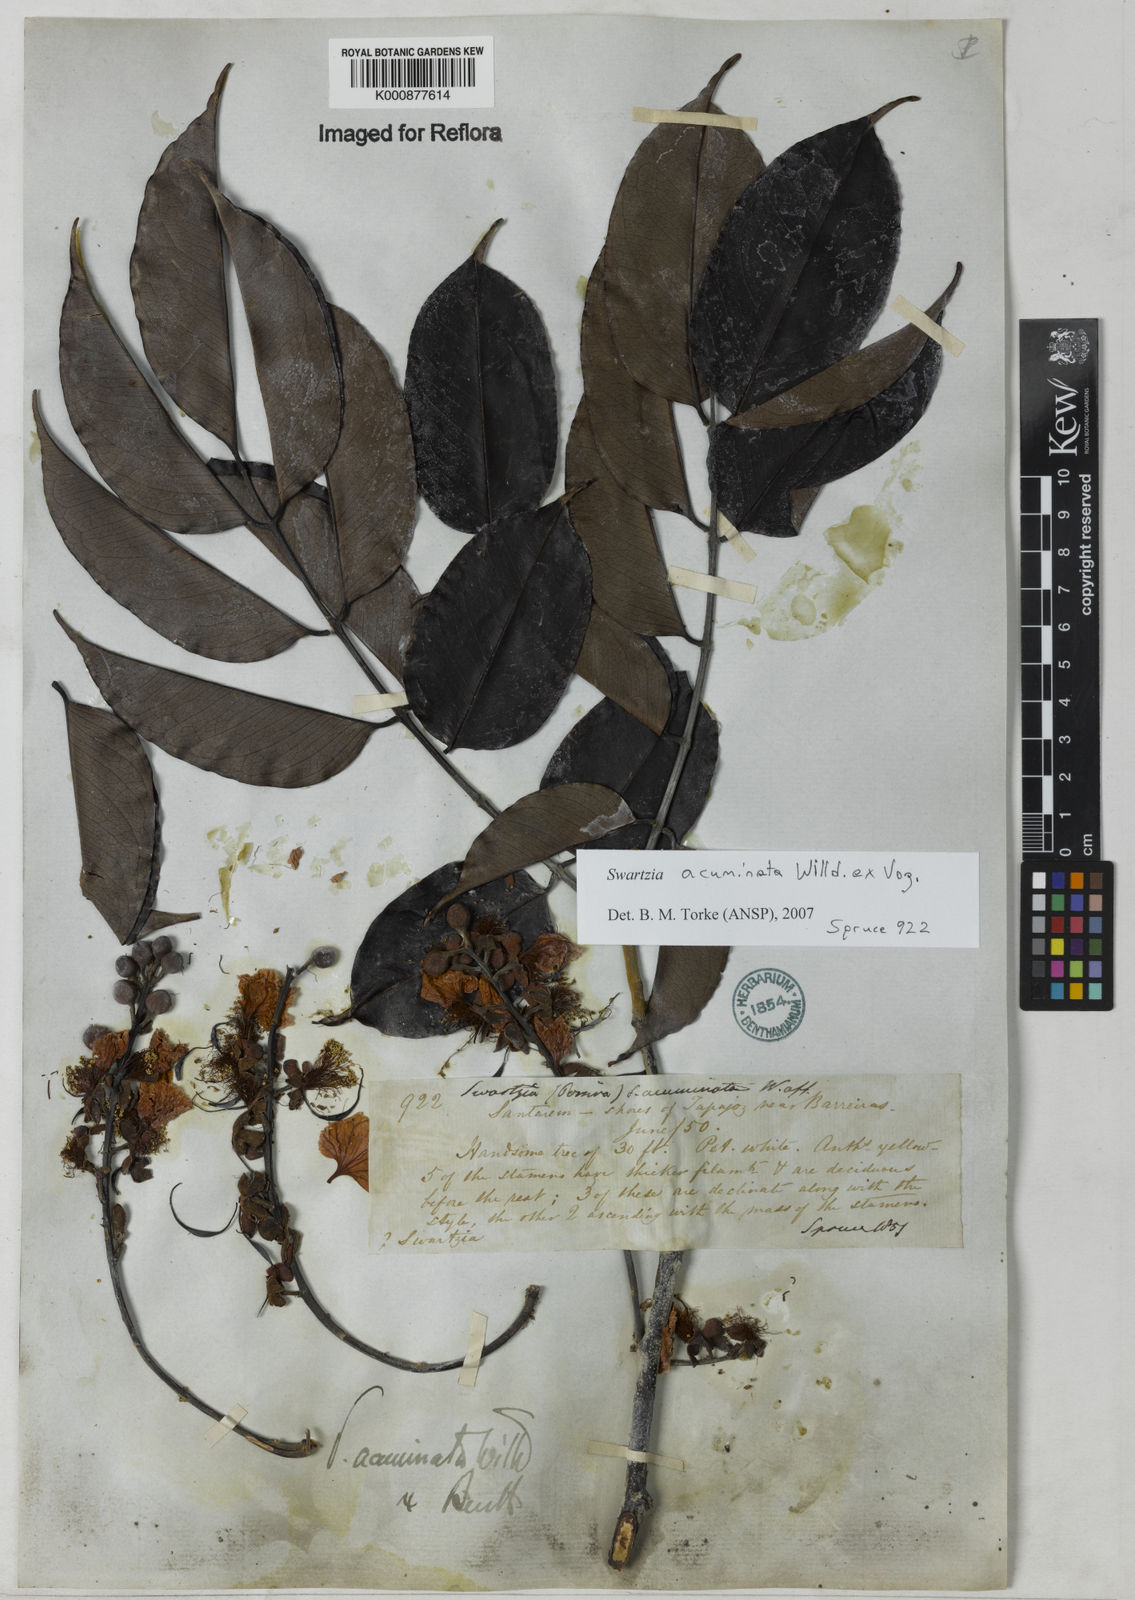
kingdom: Plantae
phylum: Tracheophyta
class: Magnoliopsida
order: Fabales
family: Fabaceae
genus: Swartzia
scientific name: Swartzia acuminata
